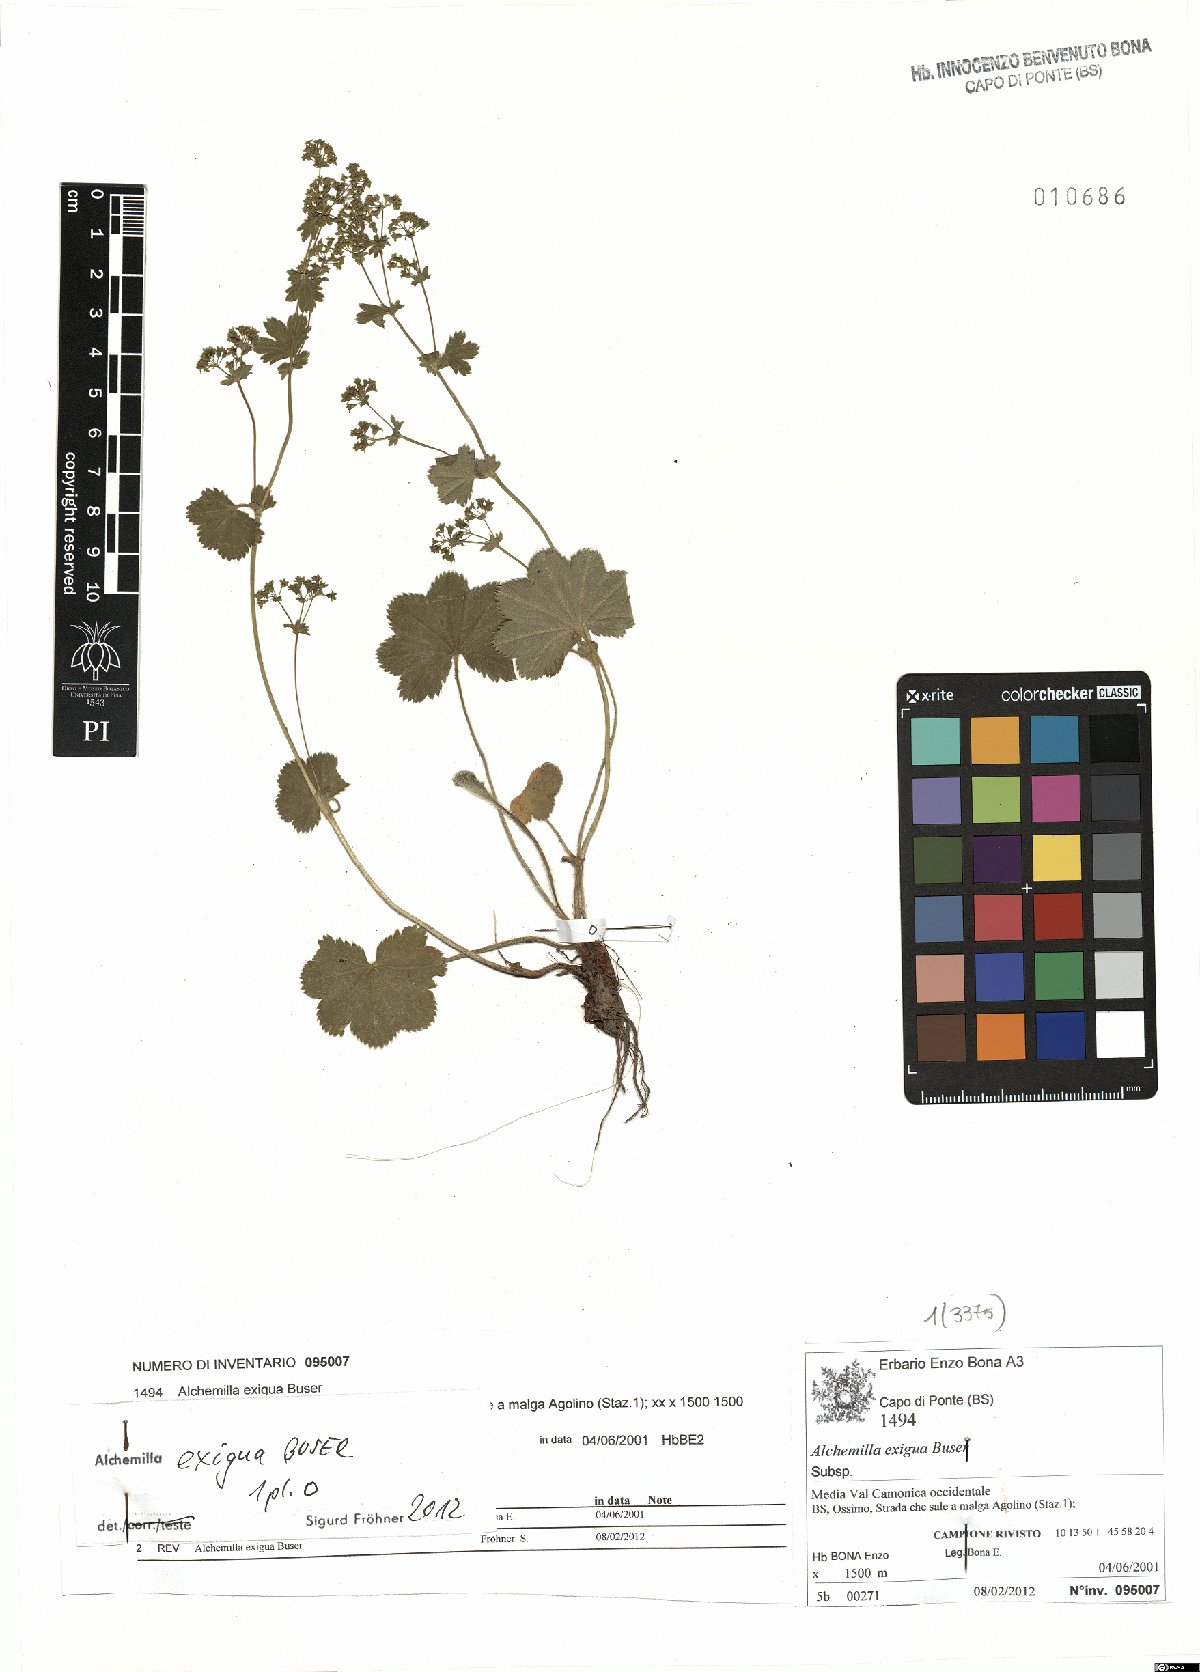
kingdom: Plantae
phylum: Tracheophyta
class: Magnoliopsida
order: Rosales
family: Rosaceae
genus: Alchemilla
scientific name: Alchemilla exigua
